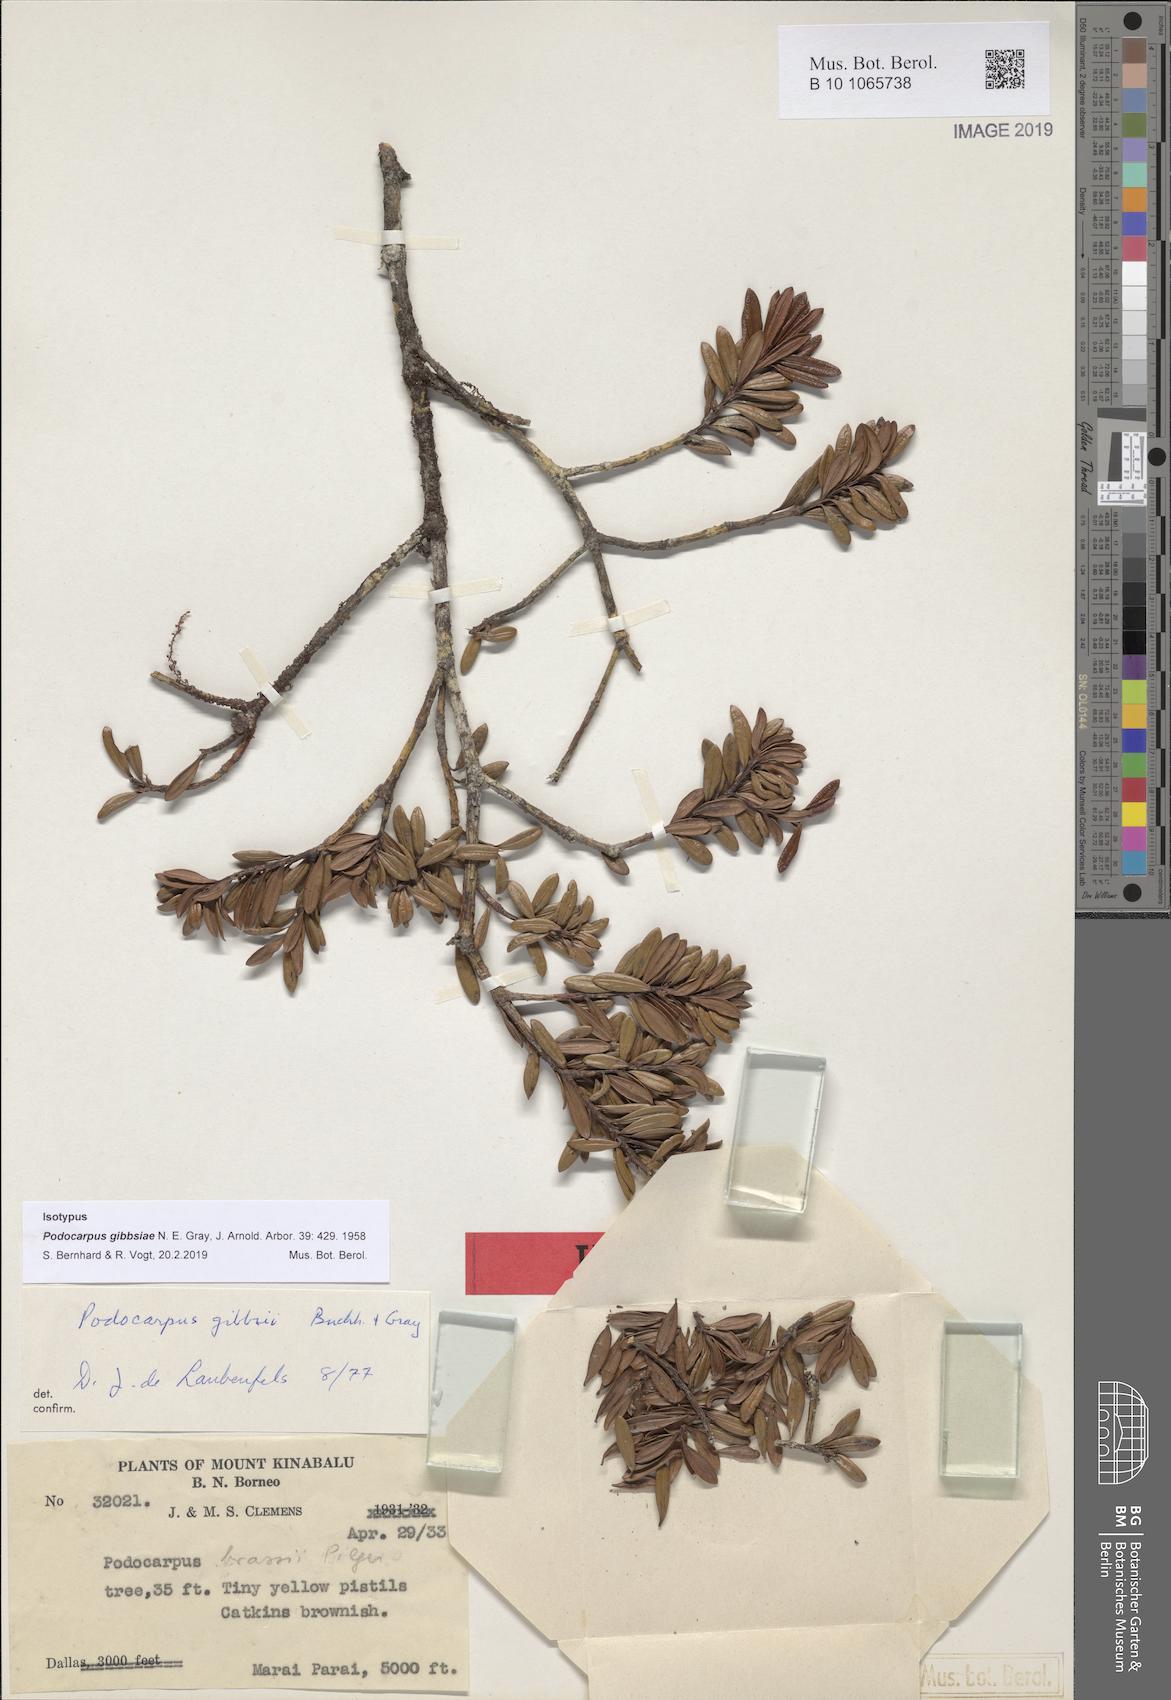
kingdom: Plantae
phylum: Tracheophyta
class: Pinopsida
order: Pinales
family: Podocarpaceae
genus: Podocarpus
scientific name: Podocarpus gibbsiae
